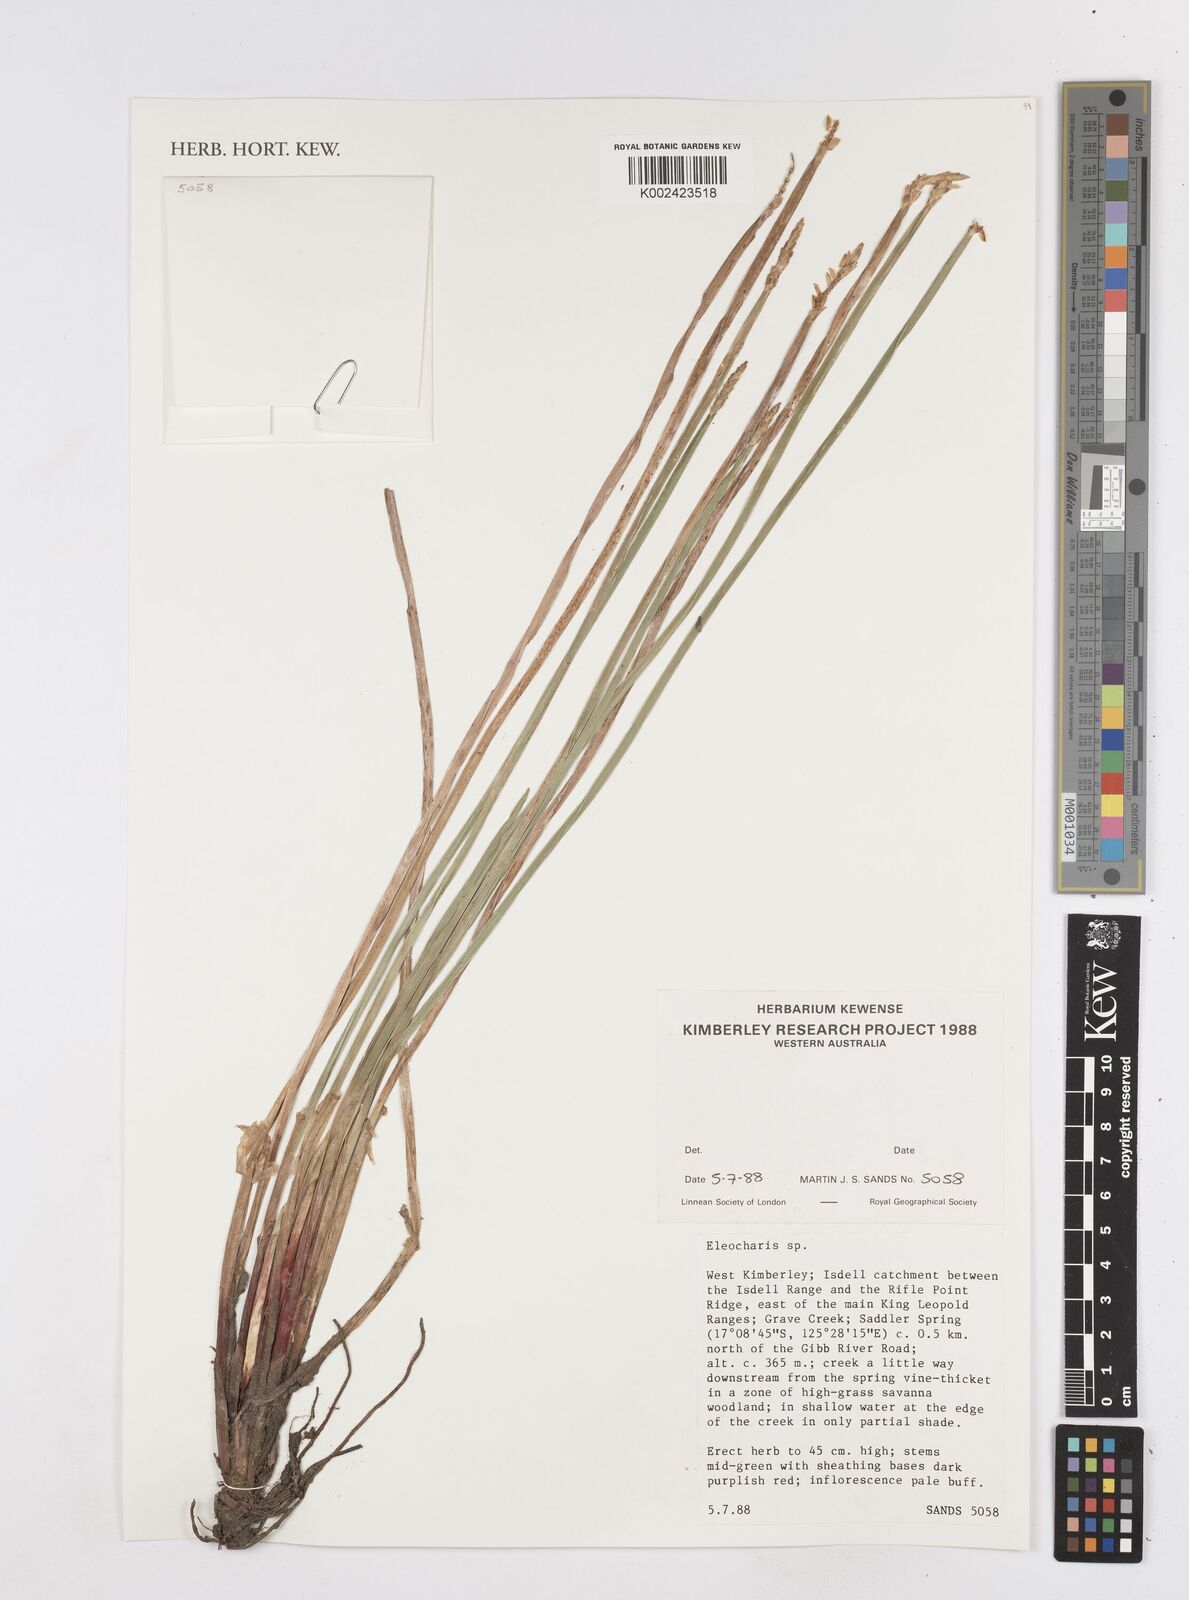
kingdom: Plantae
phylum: Tracheophyta
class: Liliopsida
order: Poales
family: Cyperaceae
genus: Eleocharis
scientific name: Eleocharis
